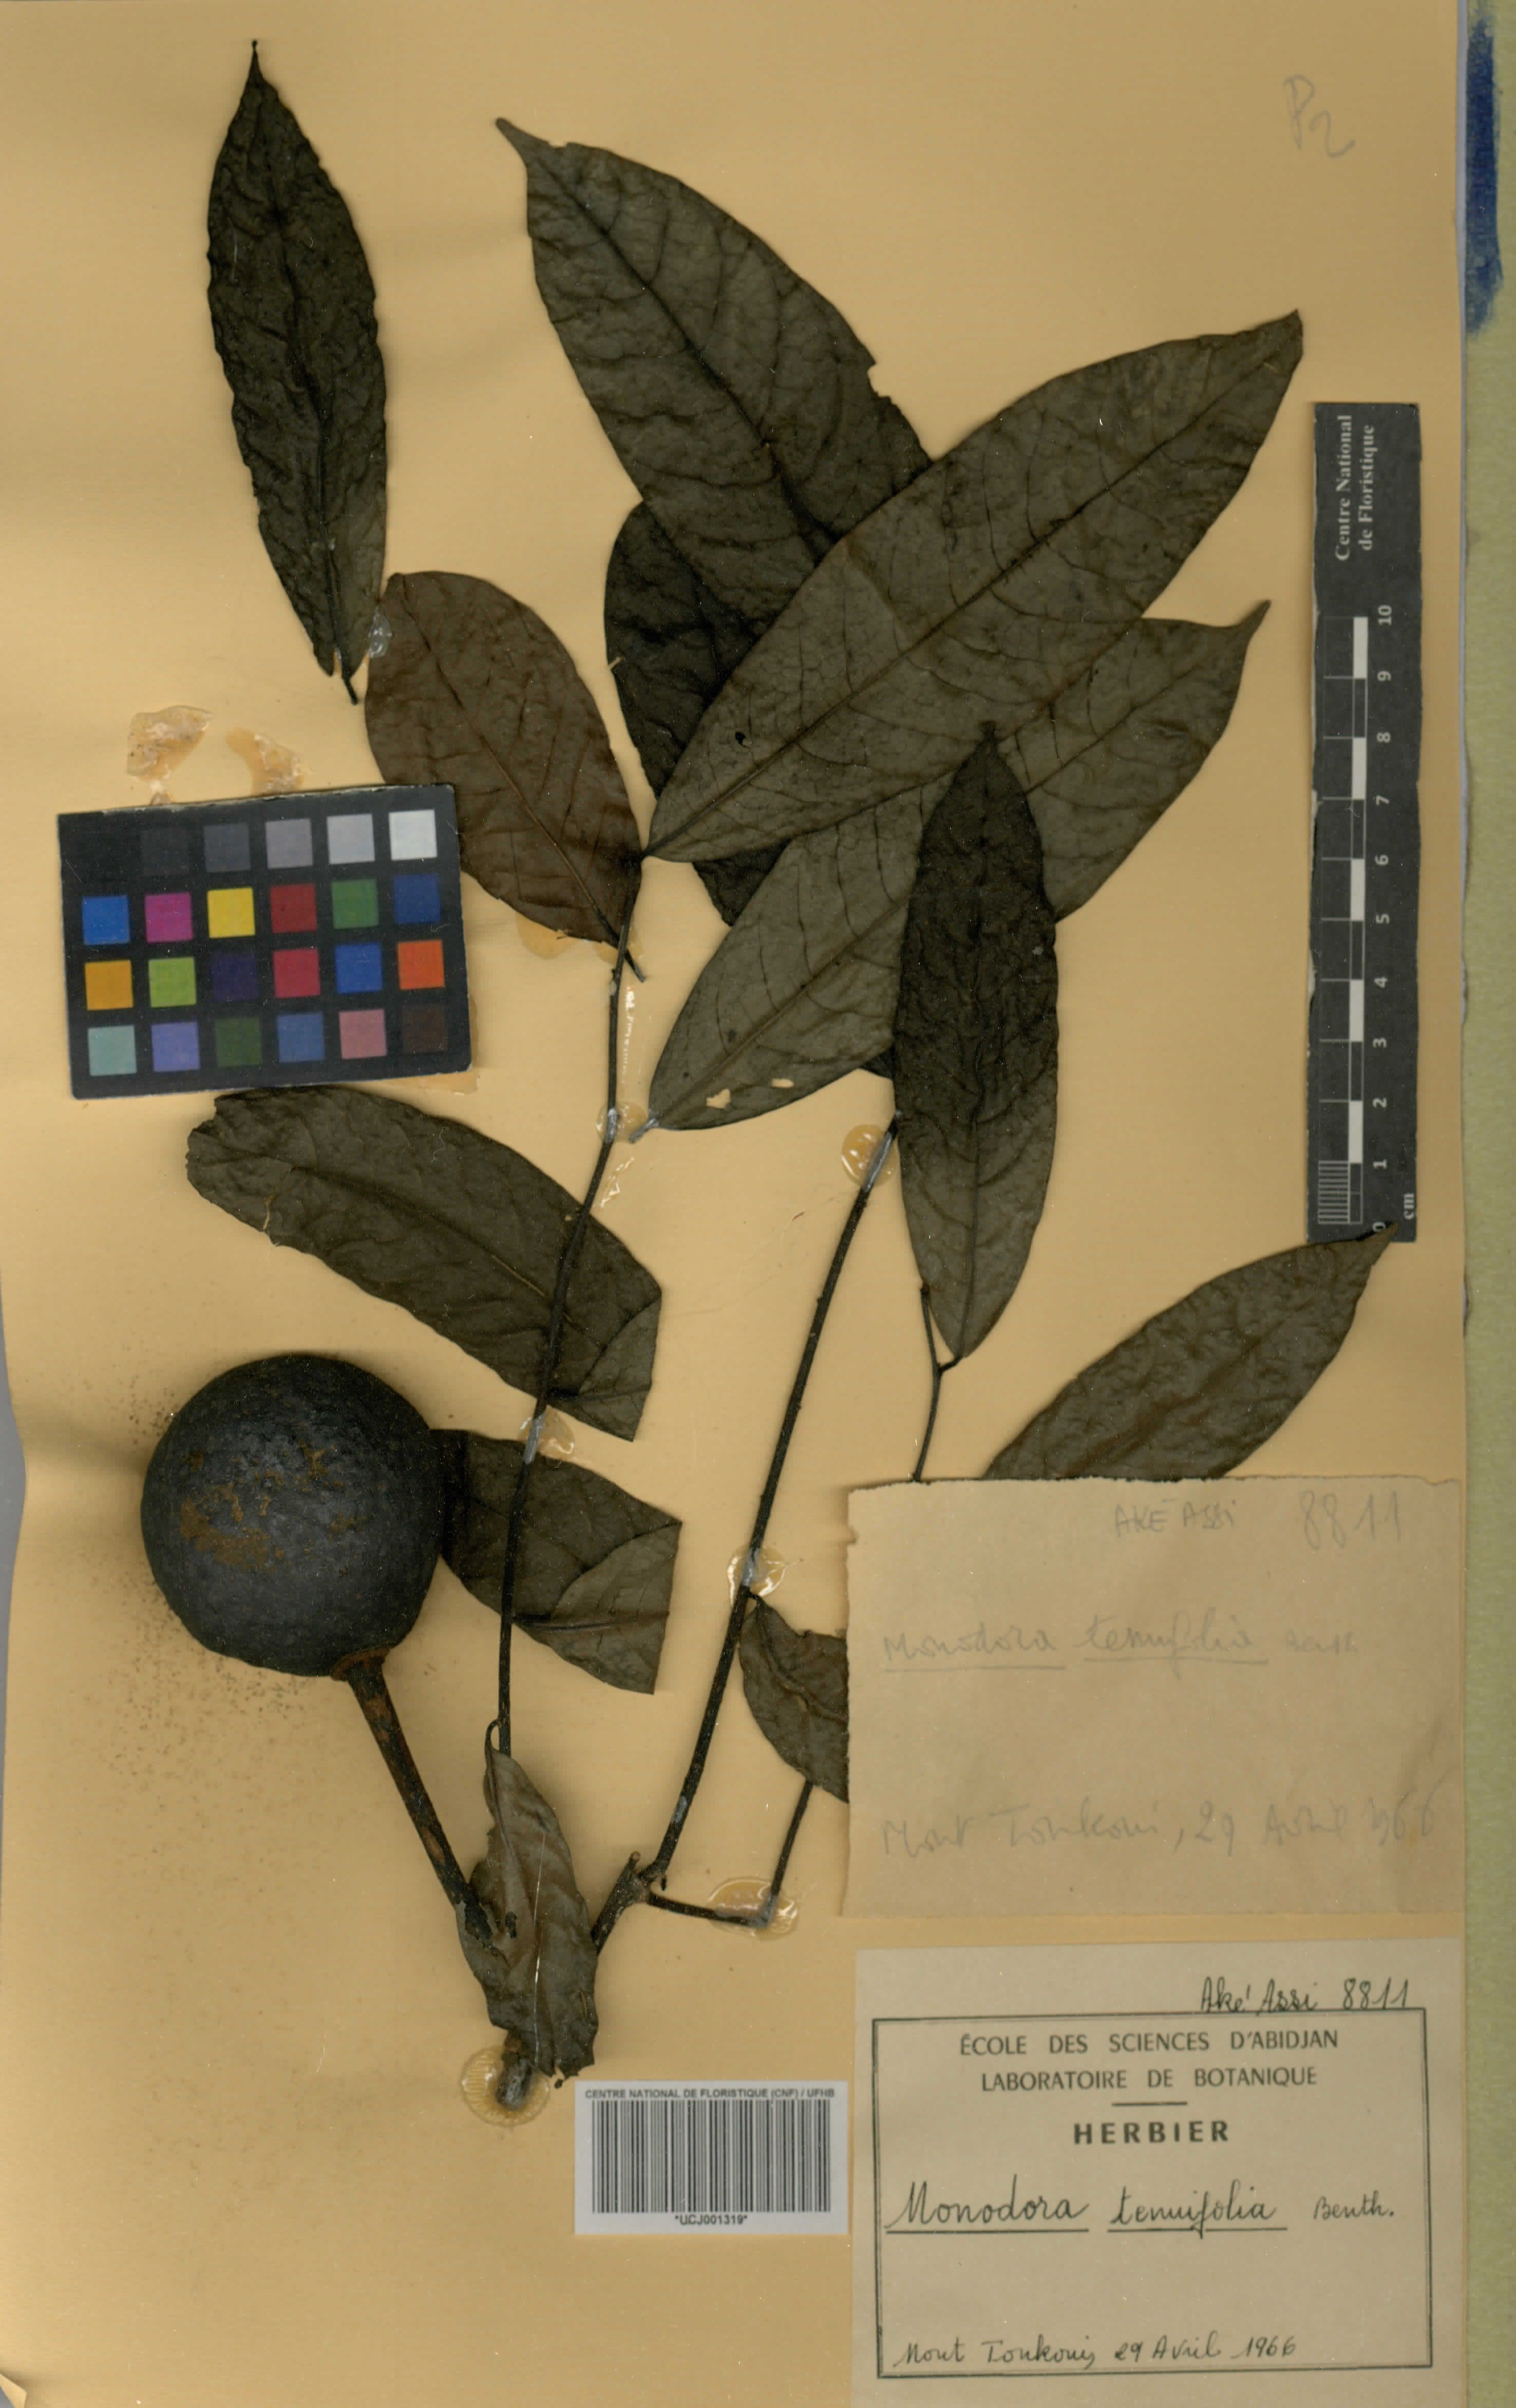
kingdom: Plantae
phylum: Tracheophyta
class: Magnoliopsida
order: Magnoliales
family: Annonaceae
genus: Monodora
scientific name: Monodora tenuifolia
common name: Orchidtree
